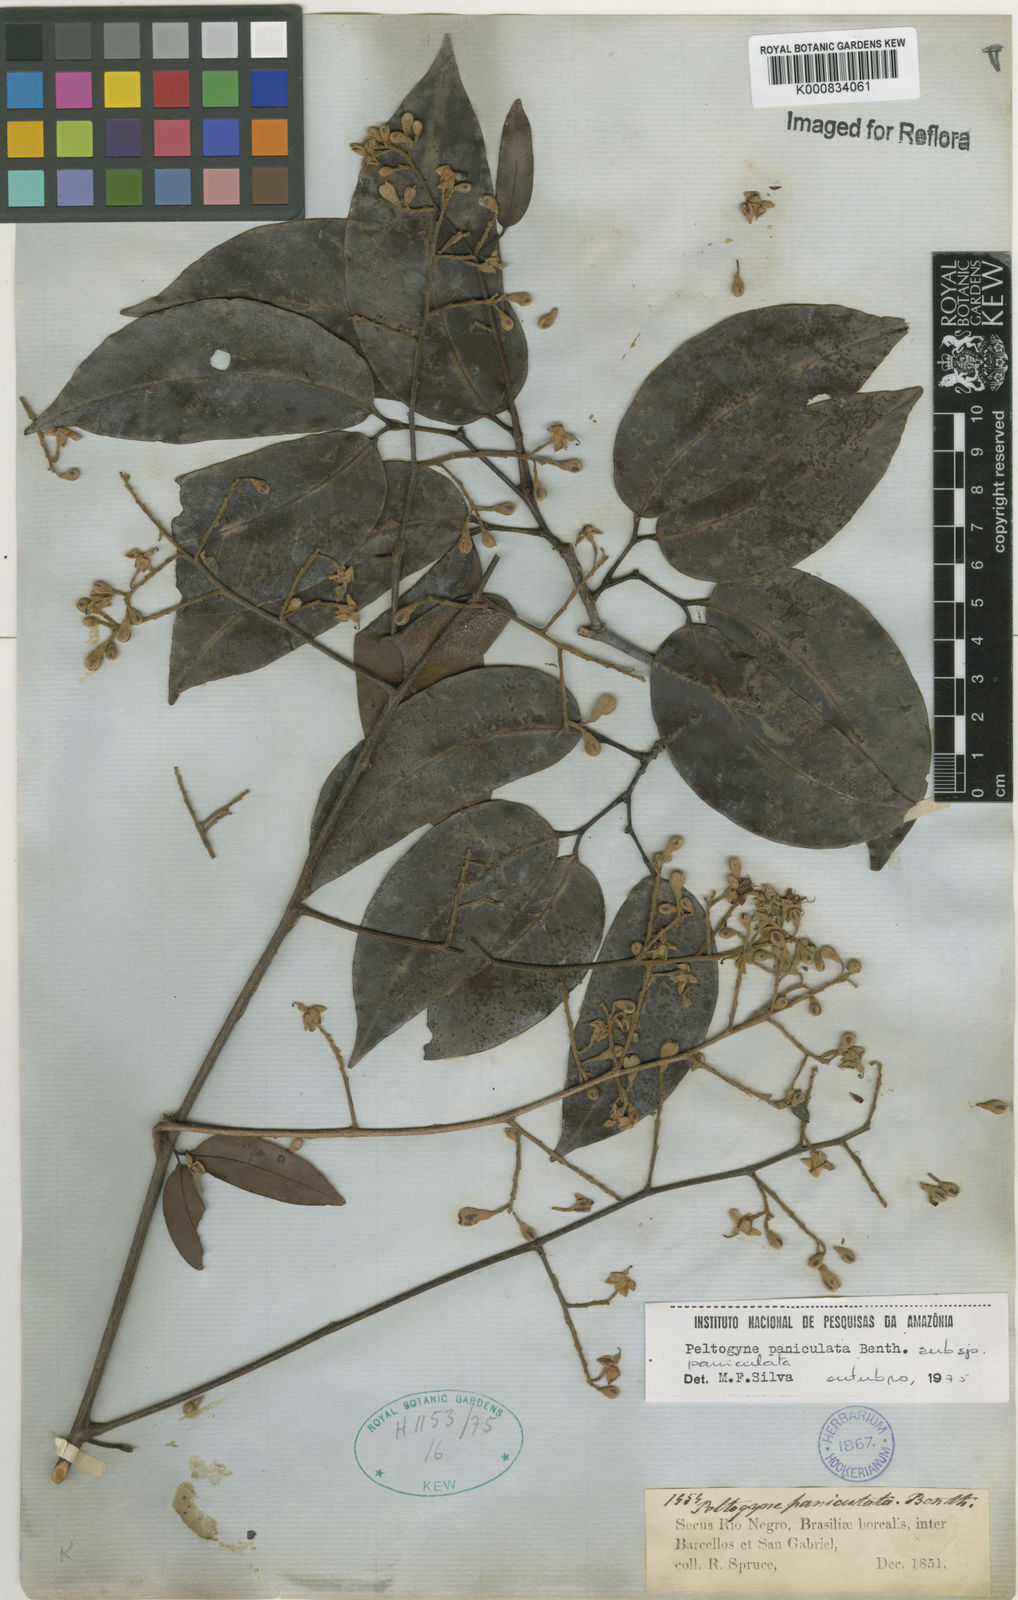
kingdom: Plantae
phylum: Tracheophyta
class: Magnoliopsida
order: Fabales
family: Fabaceae
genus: Peltogyne
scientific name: Peltogyne paniculata
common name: Purpleheart
